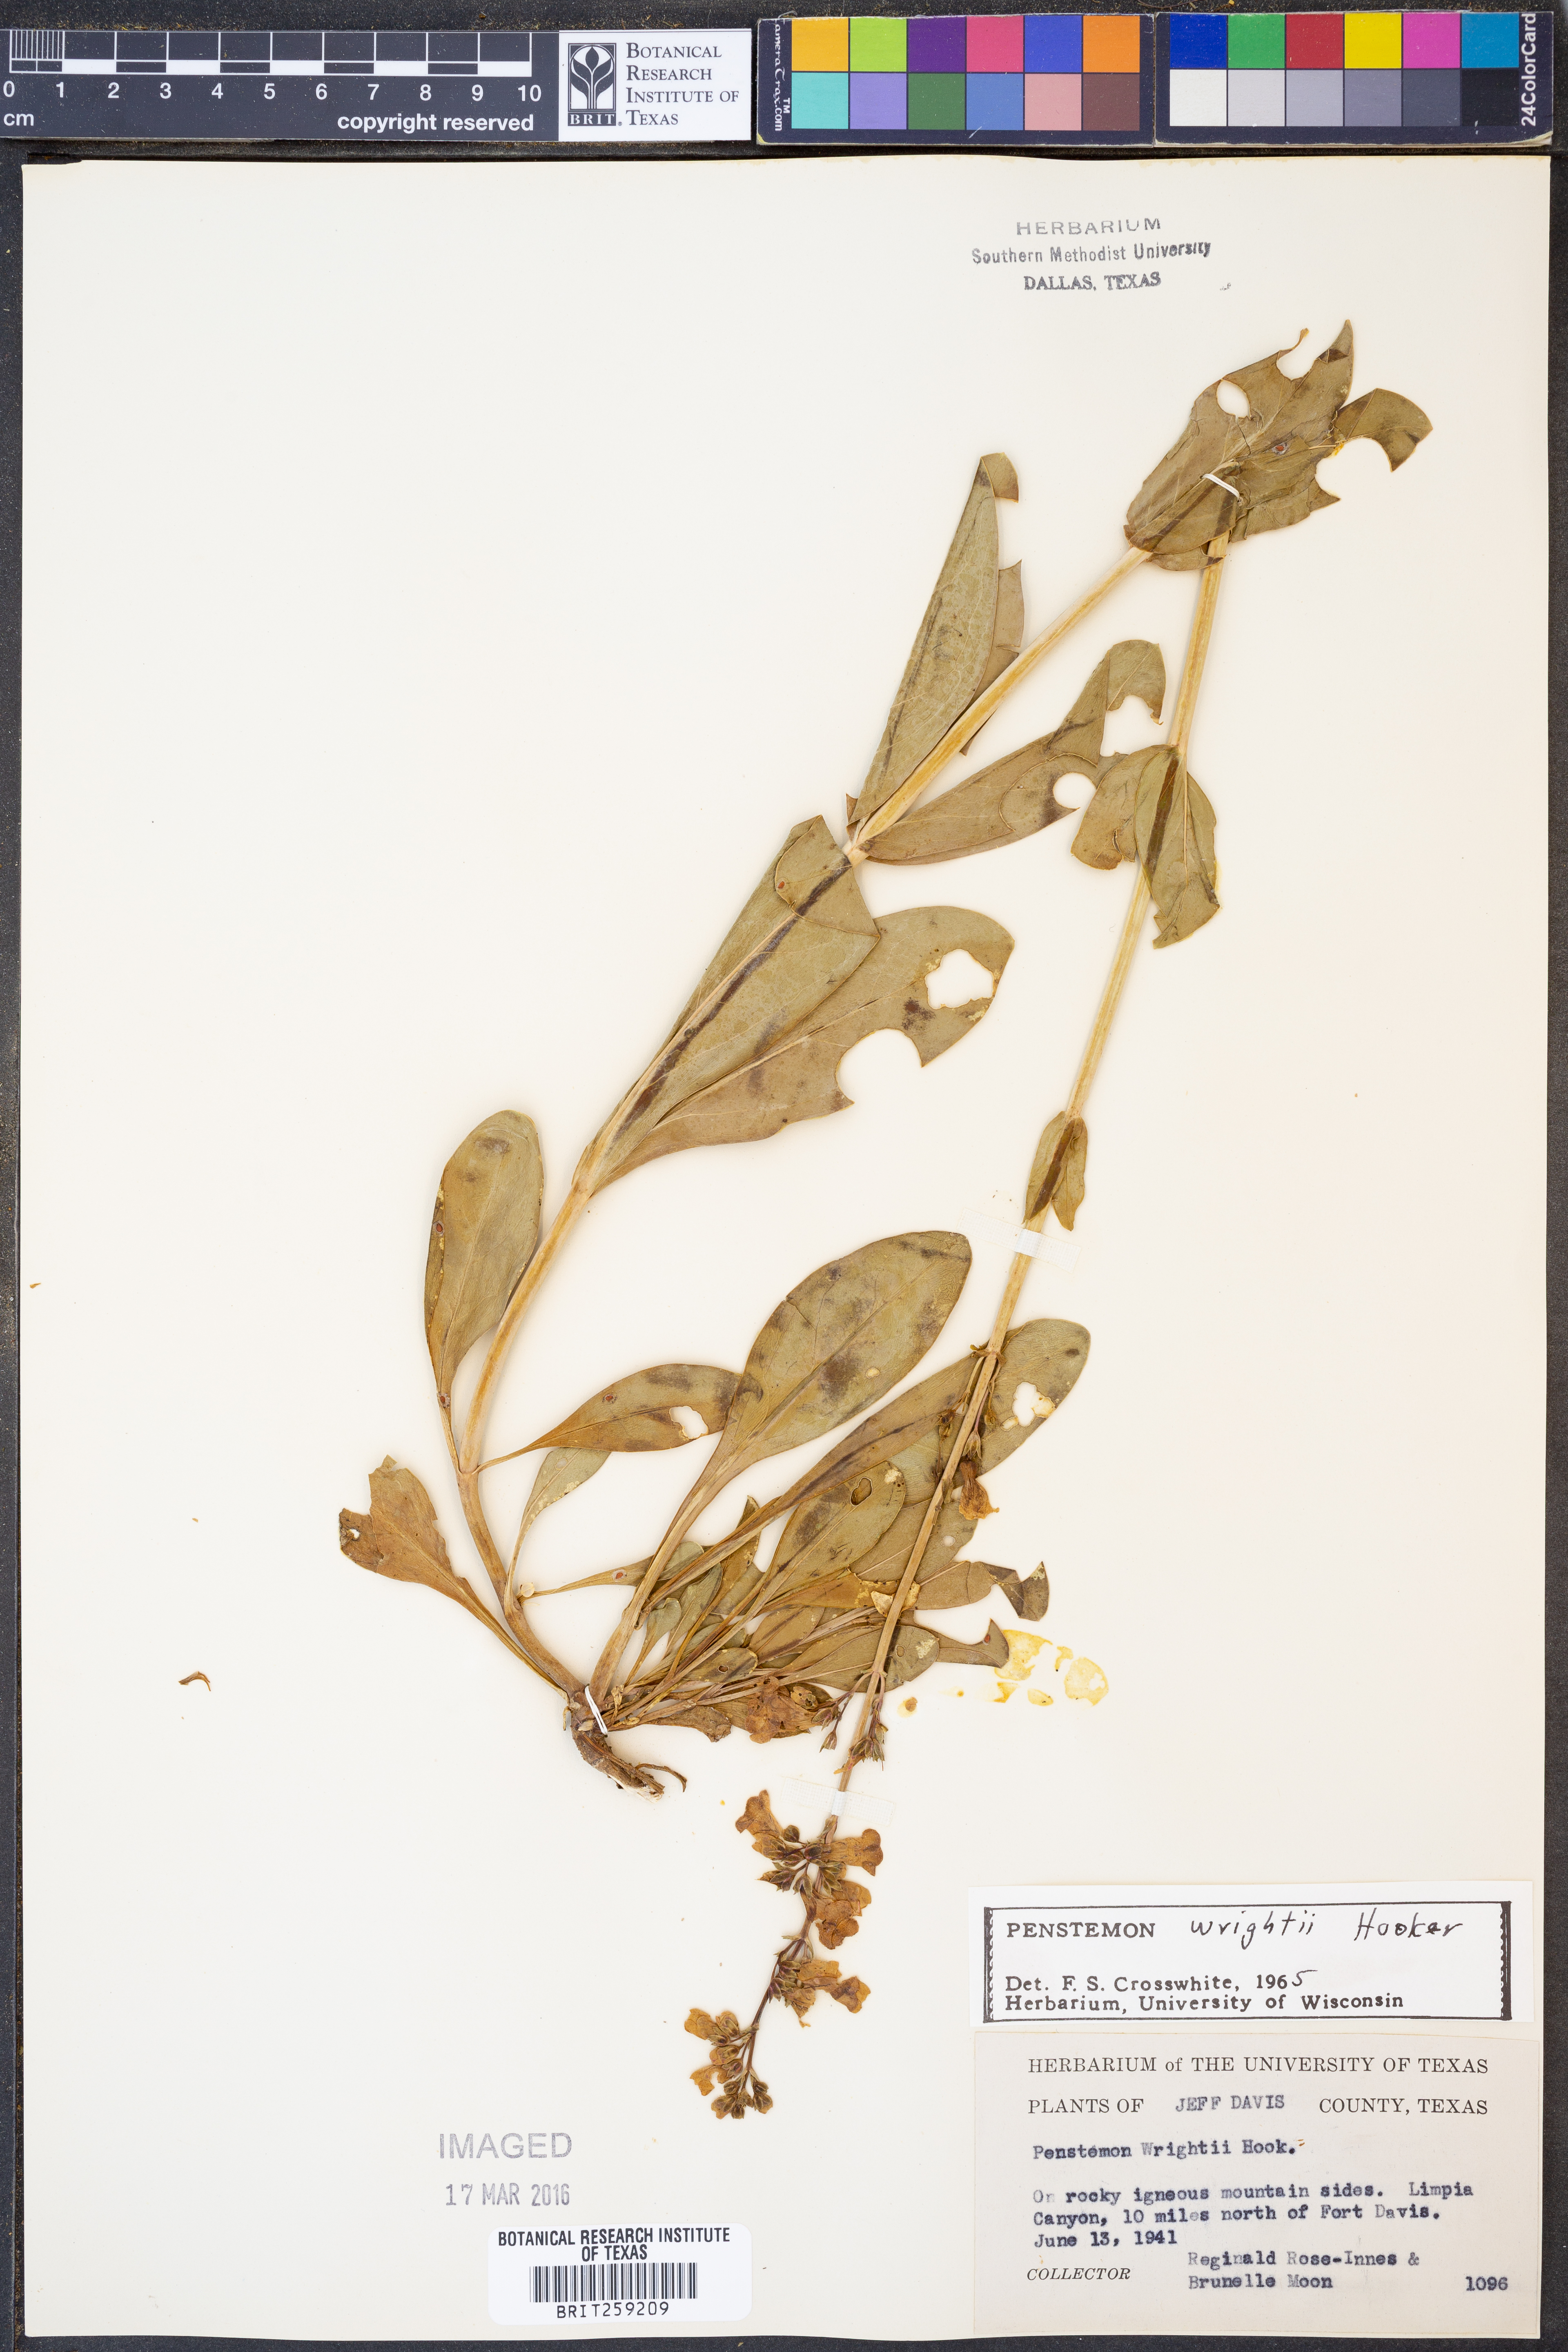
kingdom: Plantae
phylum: Tracheophyta
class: Magnoliopsida
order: Lamiales
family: Plantaginaceae
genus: Penstemon
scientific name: Penstemon wrightii
